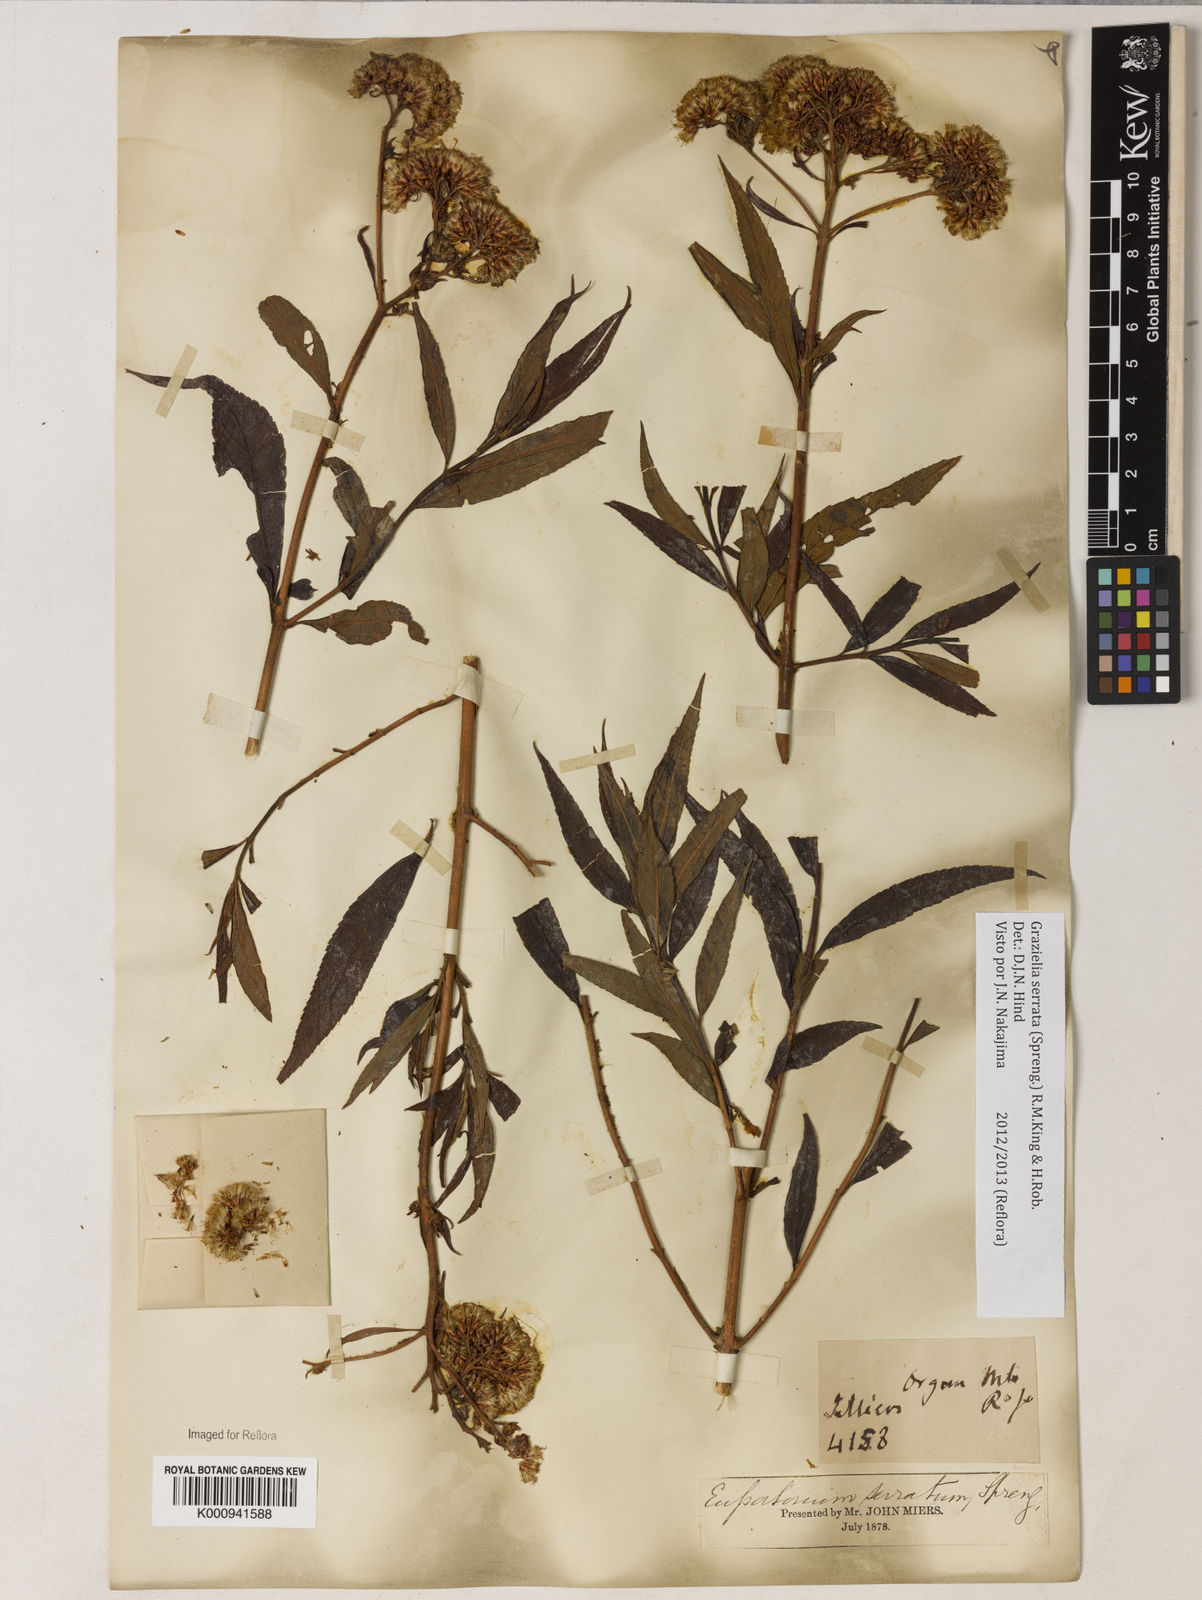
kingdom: Plantae
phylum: Tracheophyta
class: Magnoliopsida
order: Asterales
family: Asteraceae
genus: Grazielia
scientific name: Grazielia serrata
